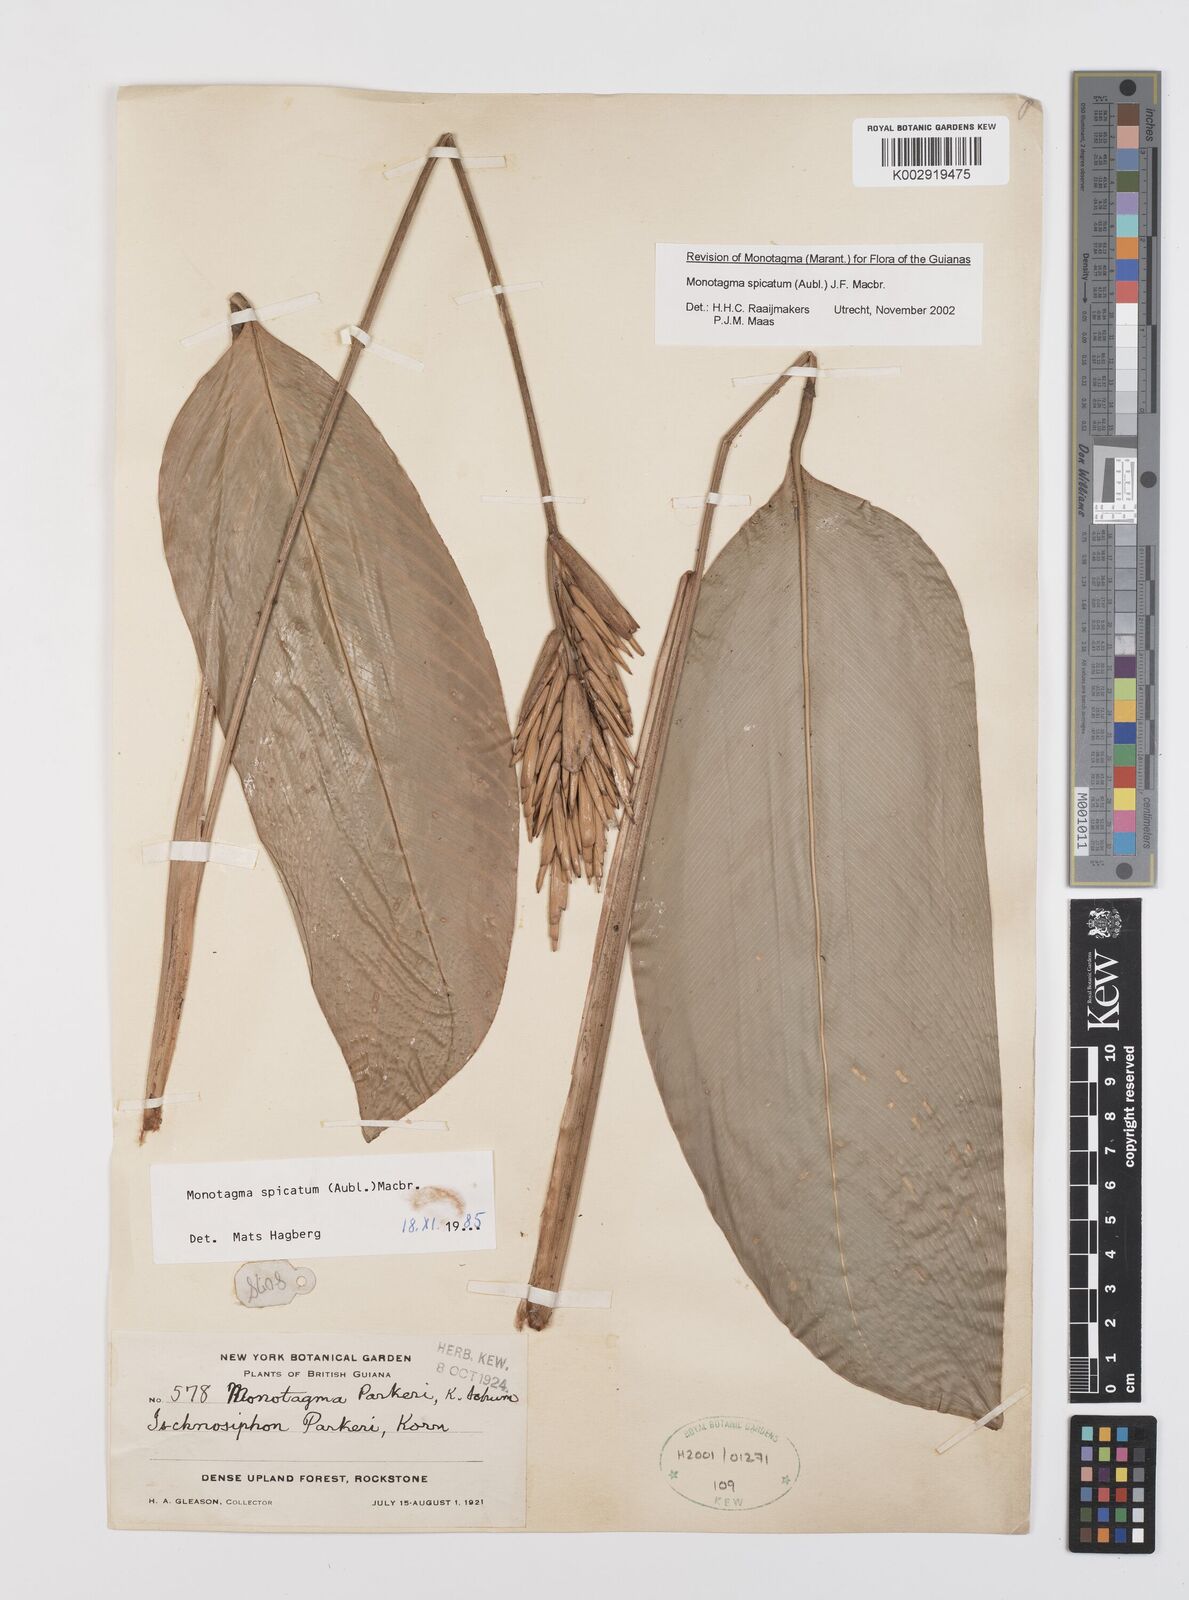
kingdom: Plantae
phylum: Tracheophyta
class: Liliopsida
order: Zingiberales
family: Marantaceae
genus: Monotagma
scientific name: Monotagma spicatum
